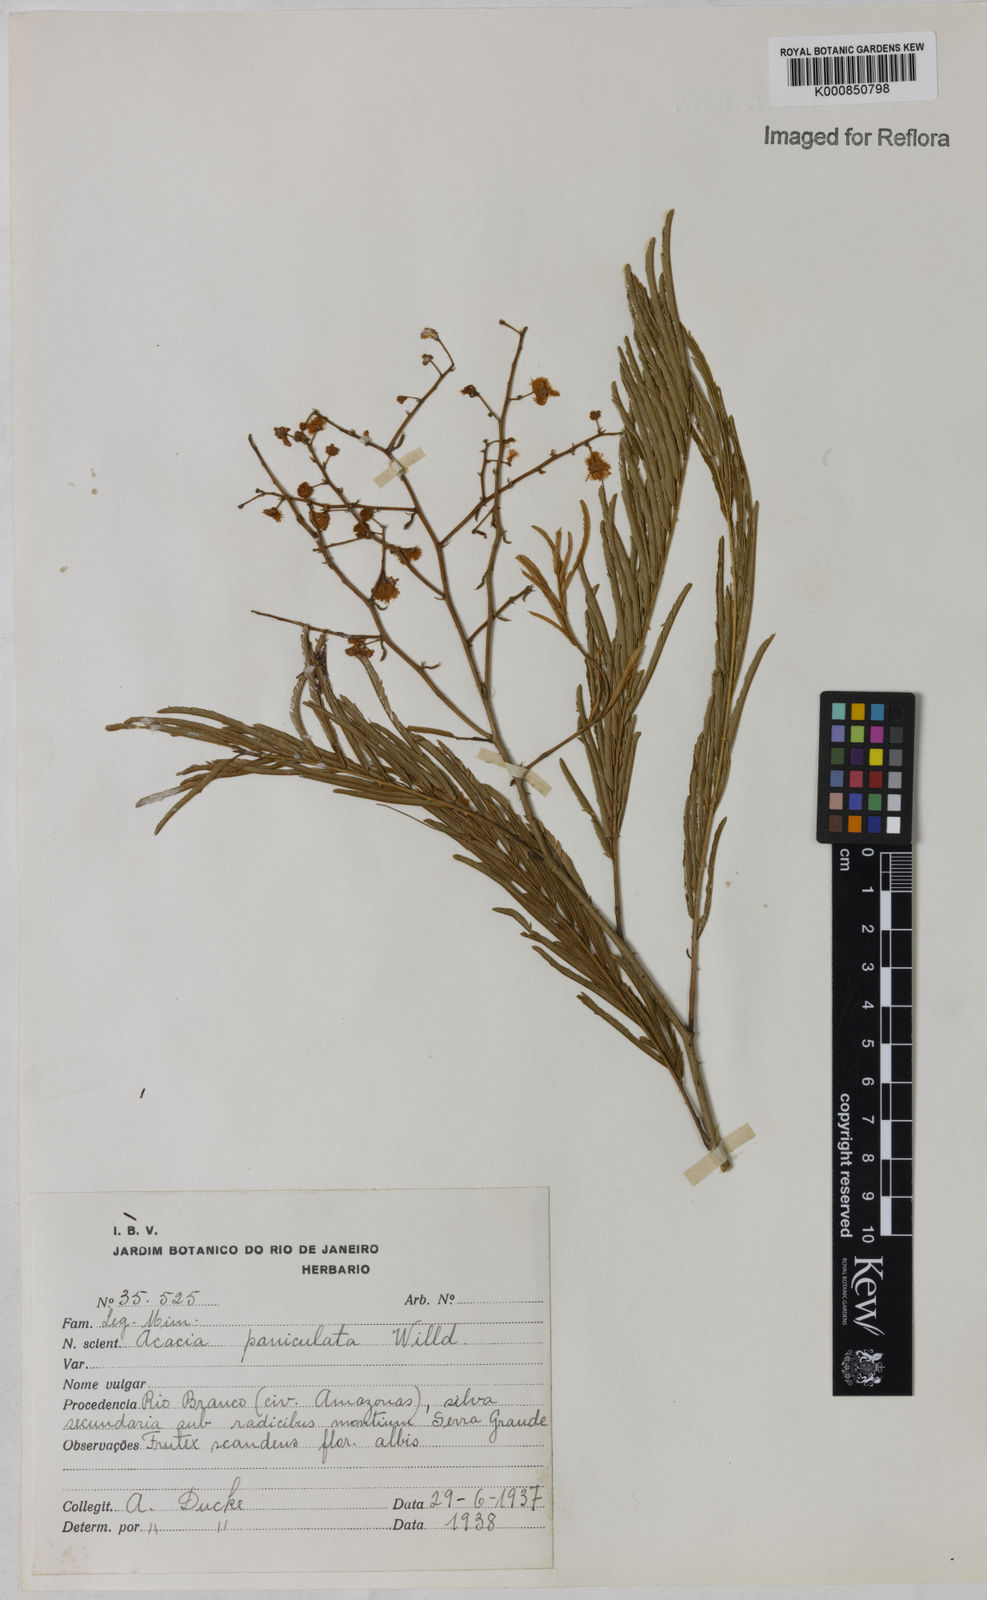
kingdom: Plantae
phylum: Tracheophyta
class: Magnoliopsida
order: Fabales
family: Fabaceae
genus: Senegalia
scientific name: Senegalia tenuifolia
